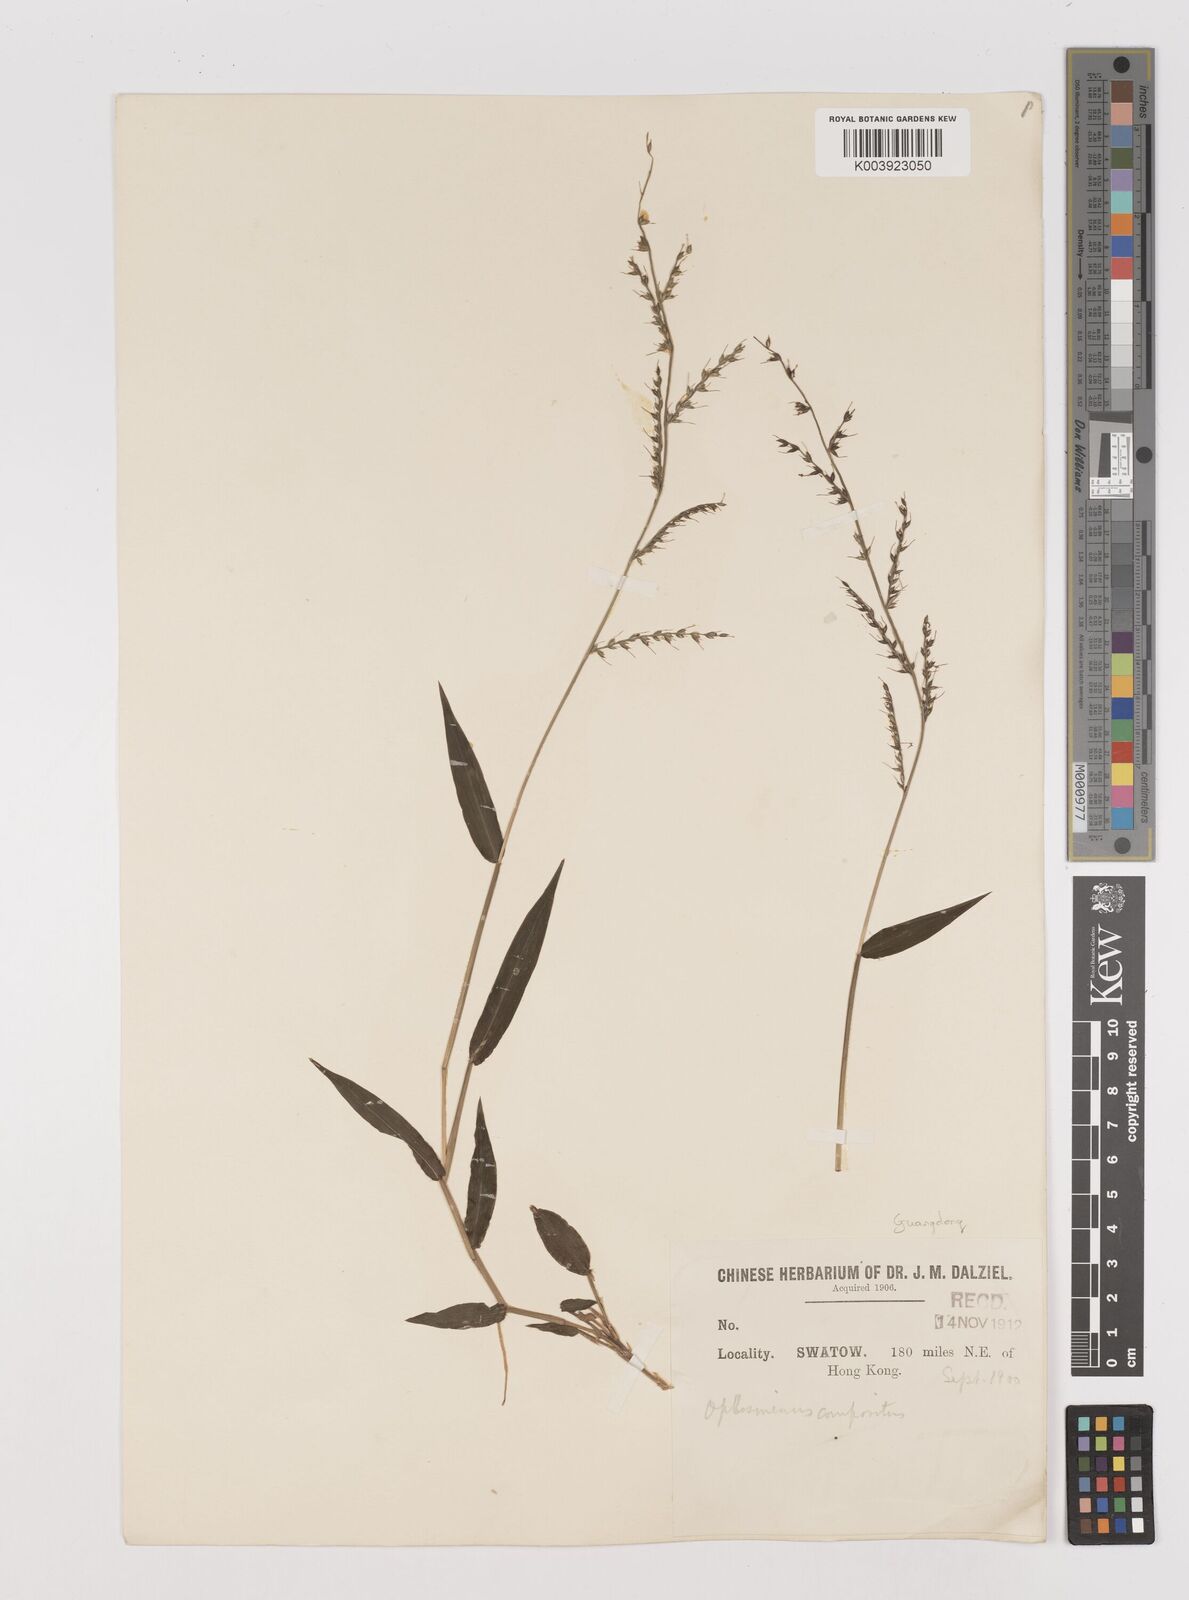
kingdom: Plantae
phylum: Tracheophyta
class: Liliopsida
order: Poales
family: Poaceae
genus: Oplismenus
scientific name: Oplismenus compositus
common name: Running mountain grass
